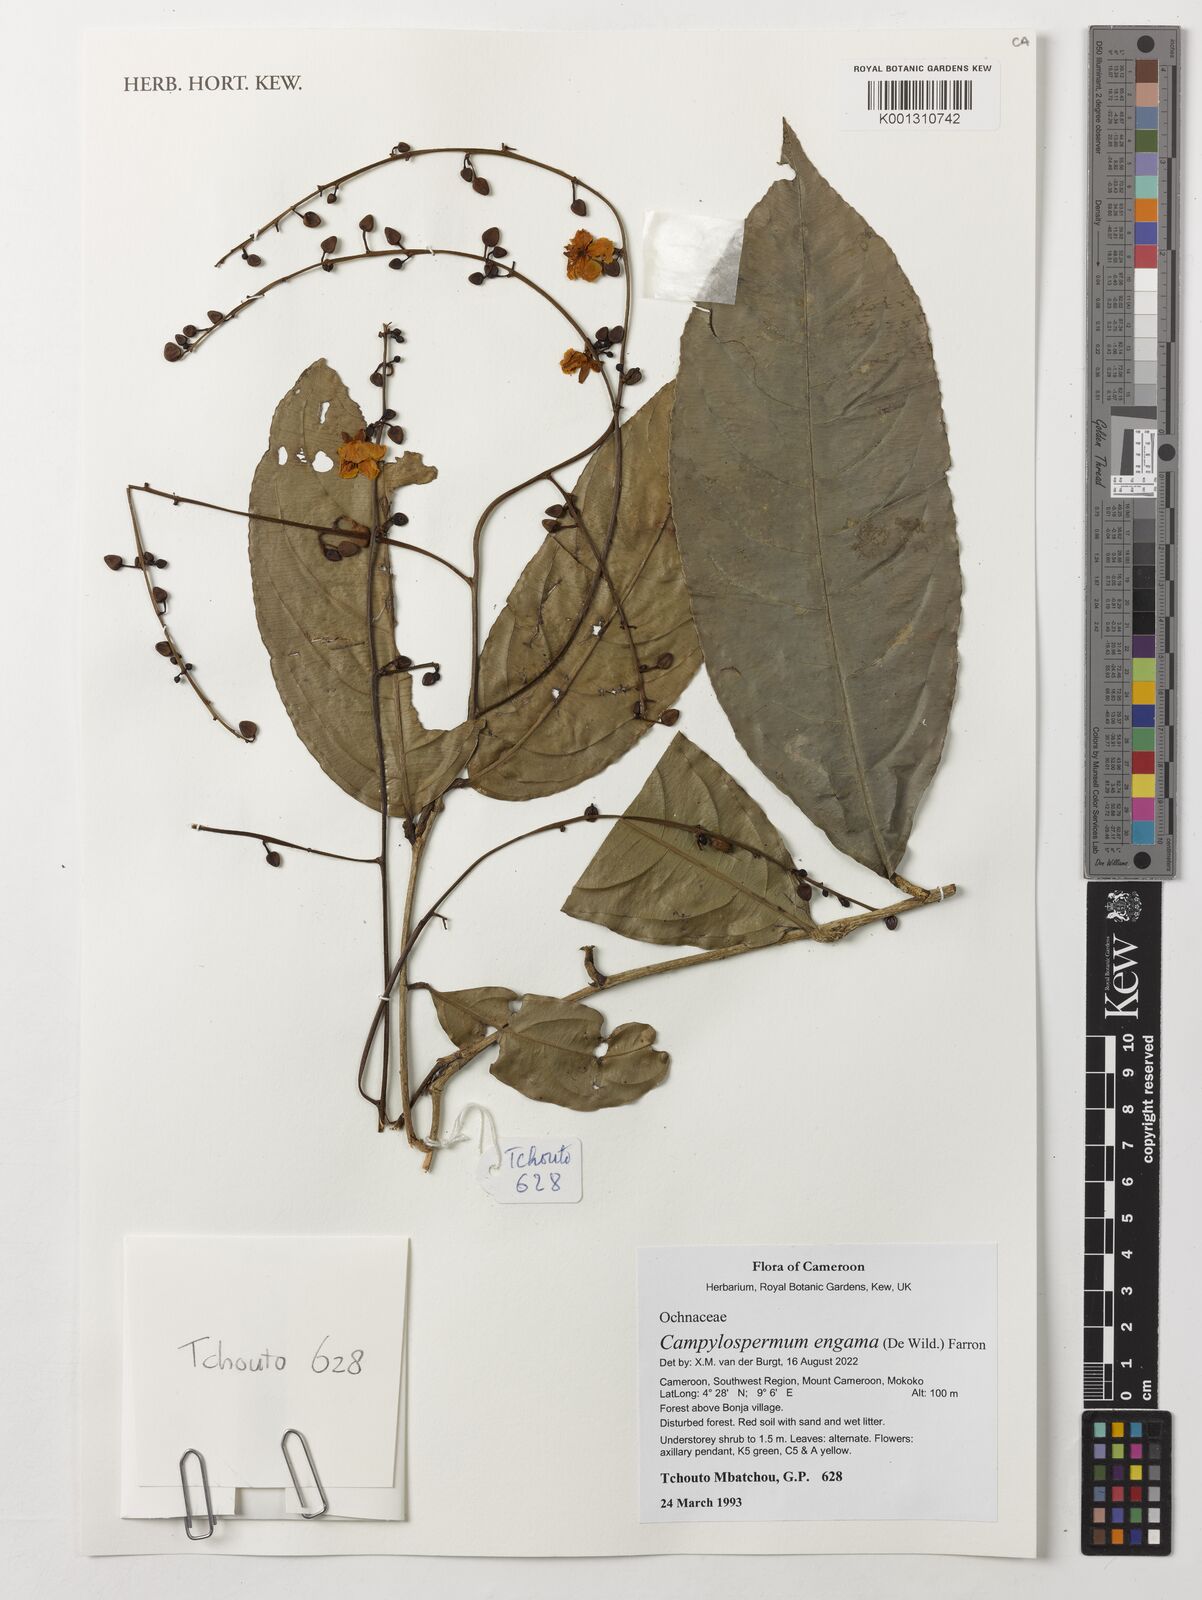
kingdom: Plantae
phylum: Tracheophyta
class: Magnoliopsida
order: Malpighiales
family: Ochnaceae
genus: Campylospermum
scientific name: Campylospermum engama
